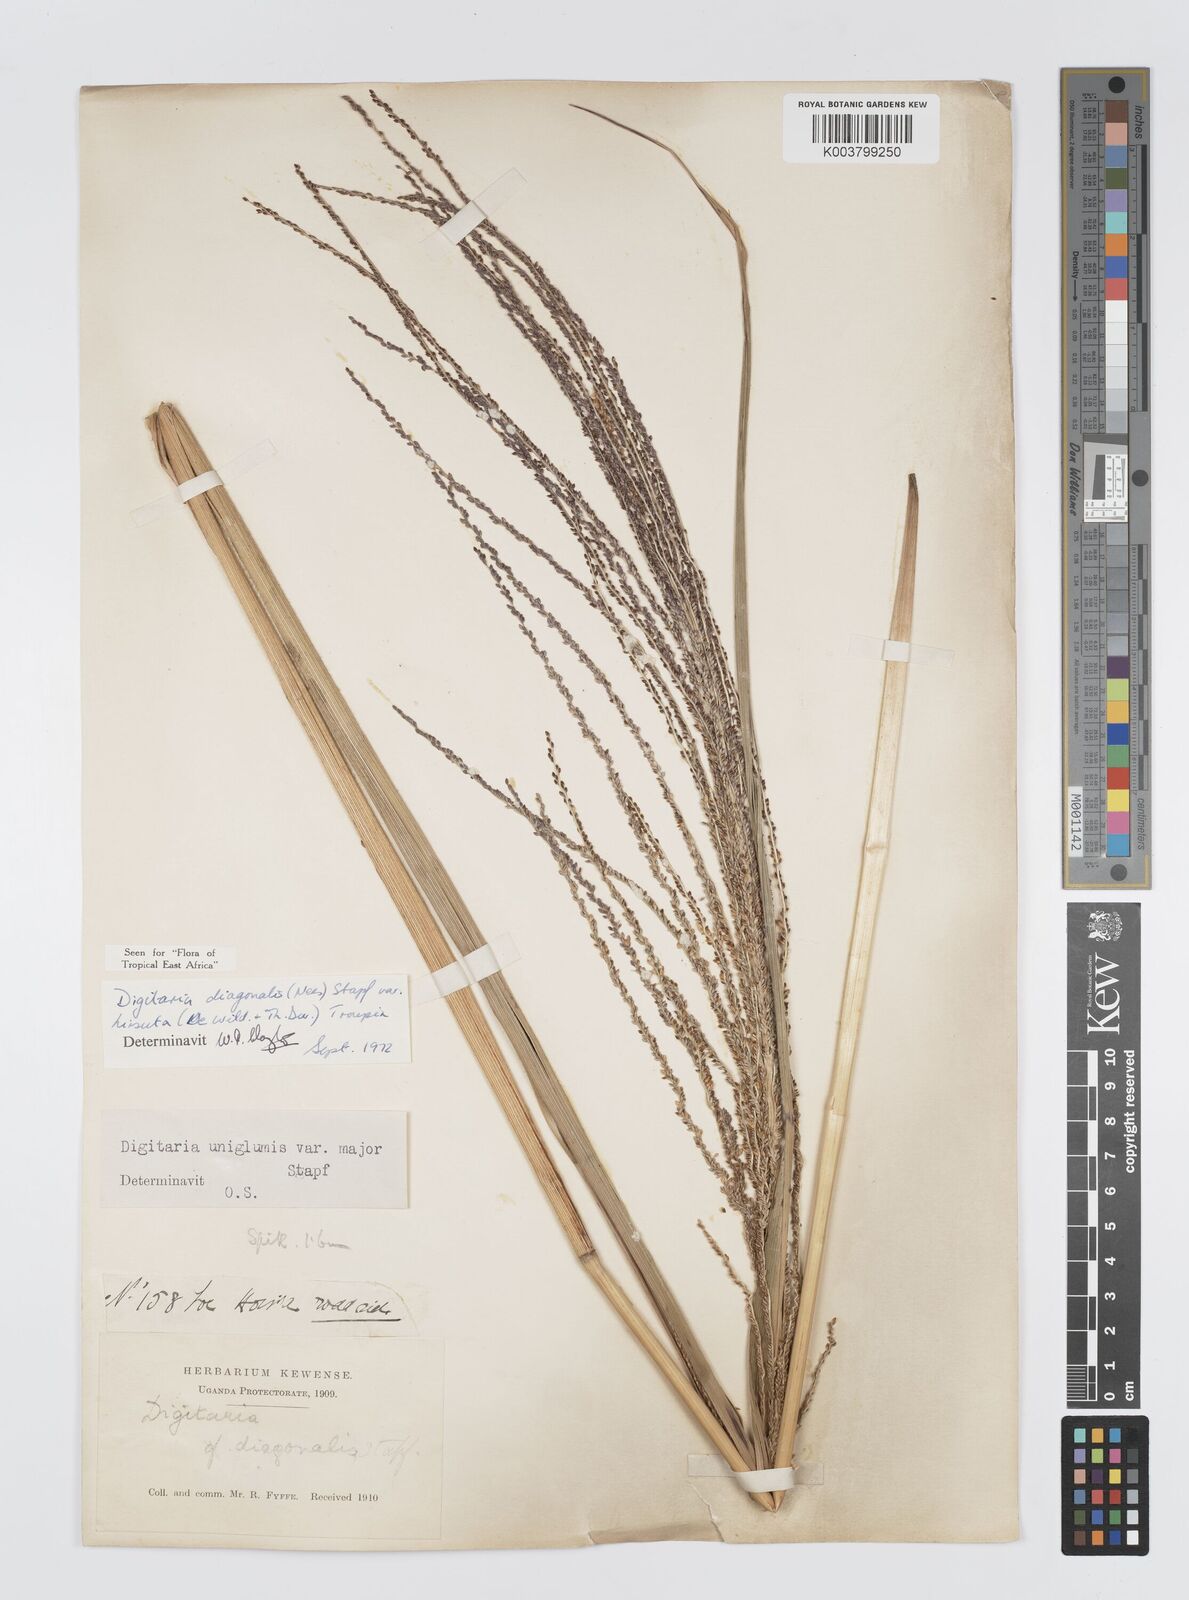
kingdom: Plantae
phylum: Tracheophyta
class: Liliopsida
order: Poales
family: Poaceae
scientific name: Poaceae
